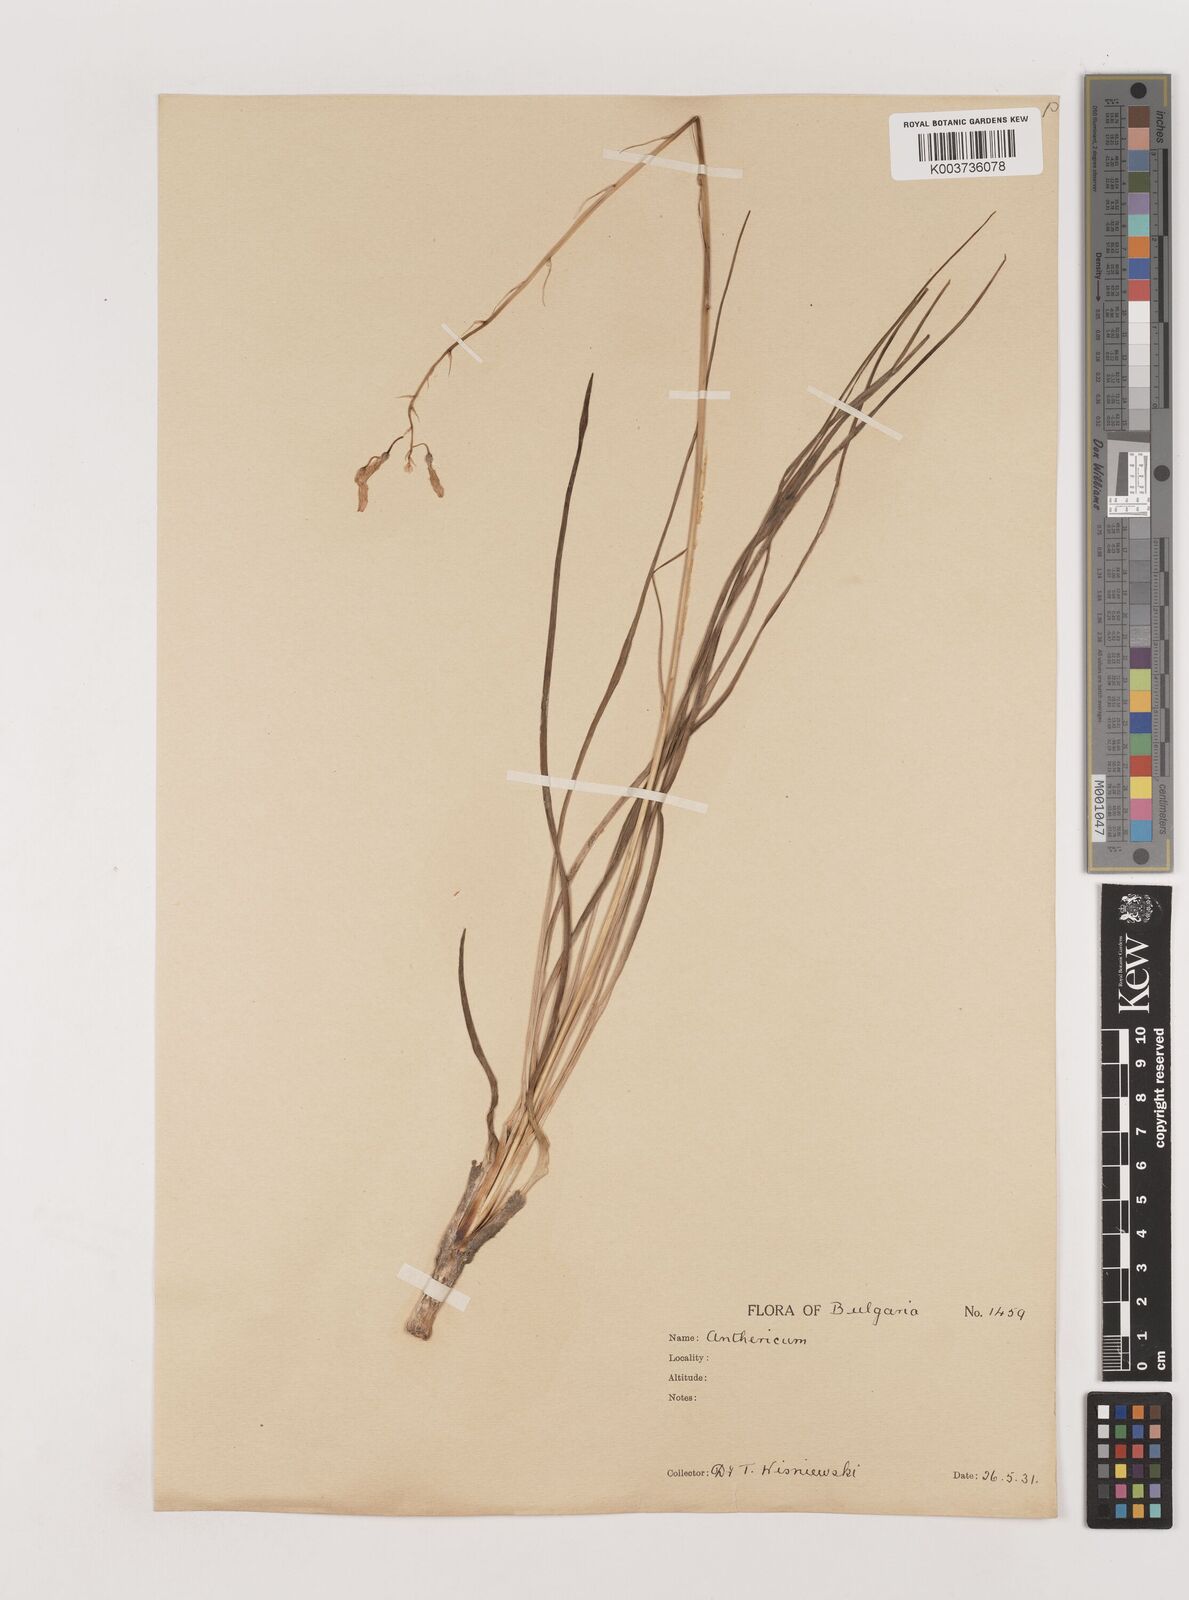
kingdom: Plantae
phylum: Tracheophyta
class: Liliopsida
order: Asparagales
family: Asparagaceae
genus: Anthericum
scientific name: Anthericum liliago
